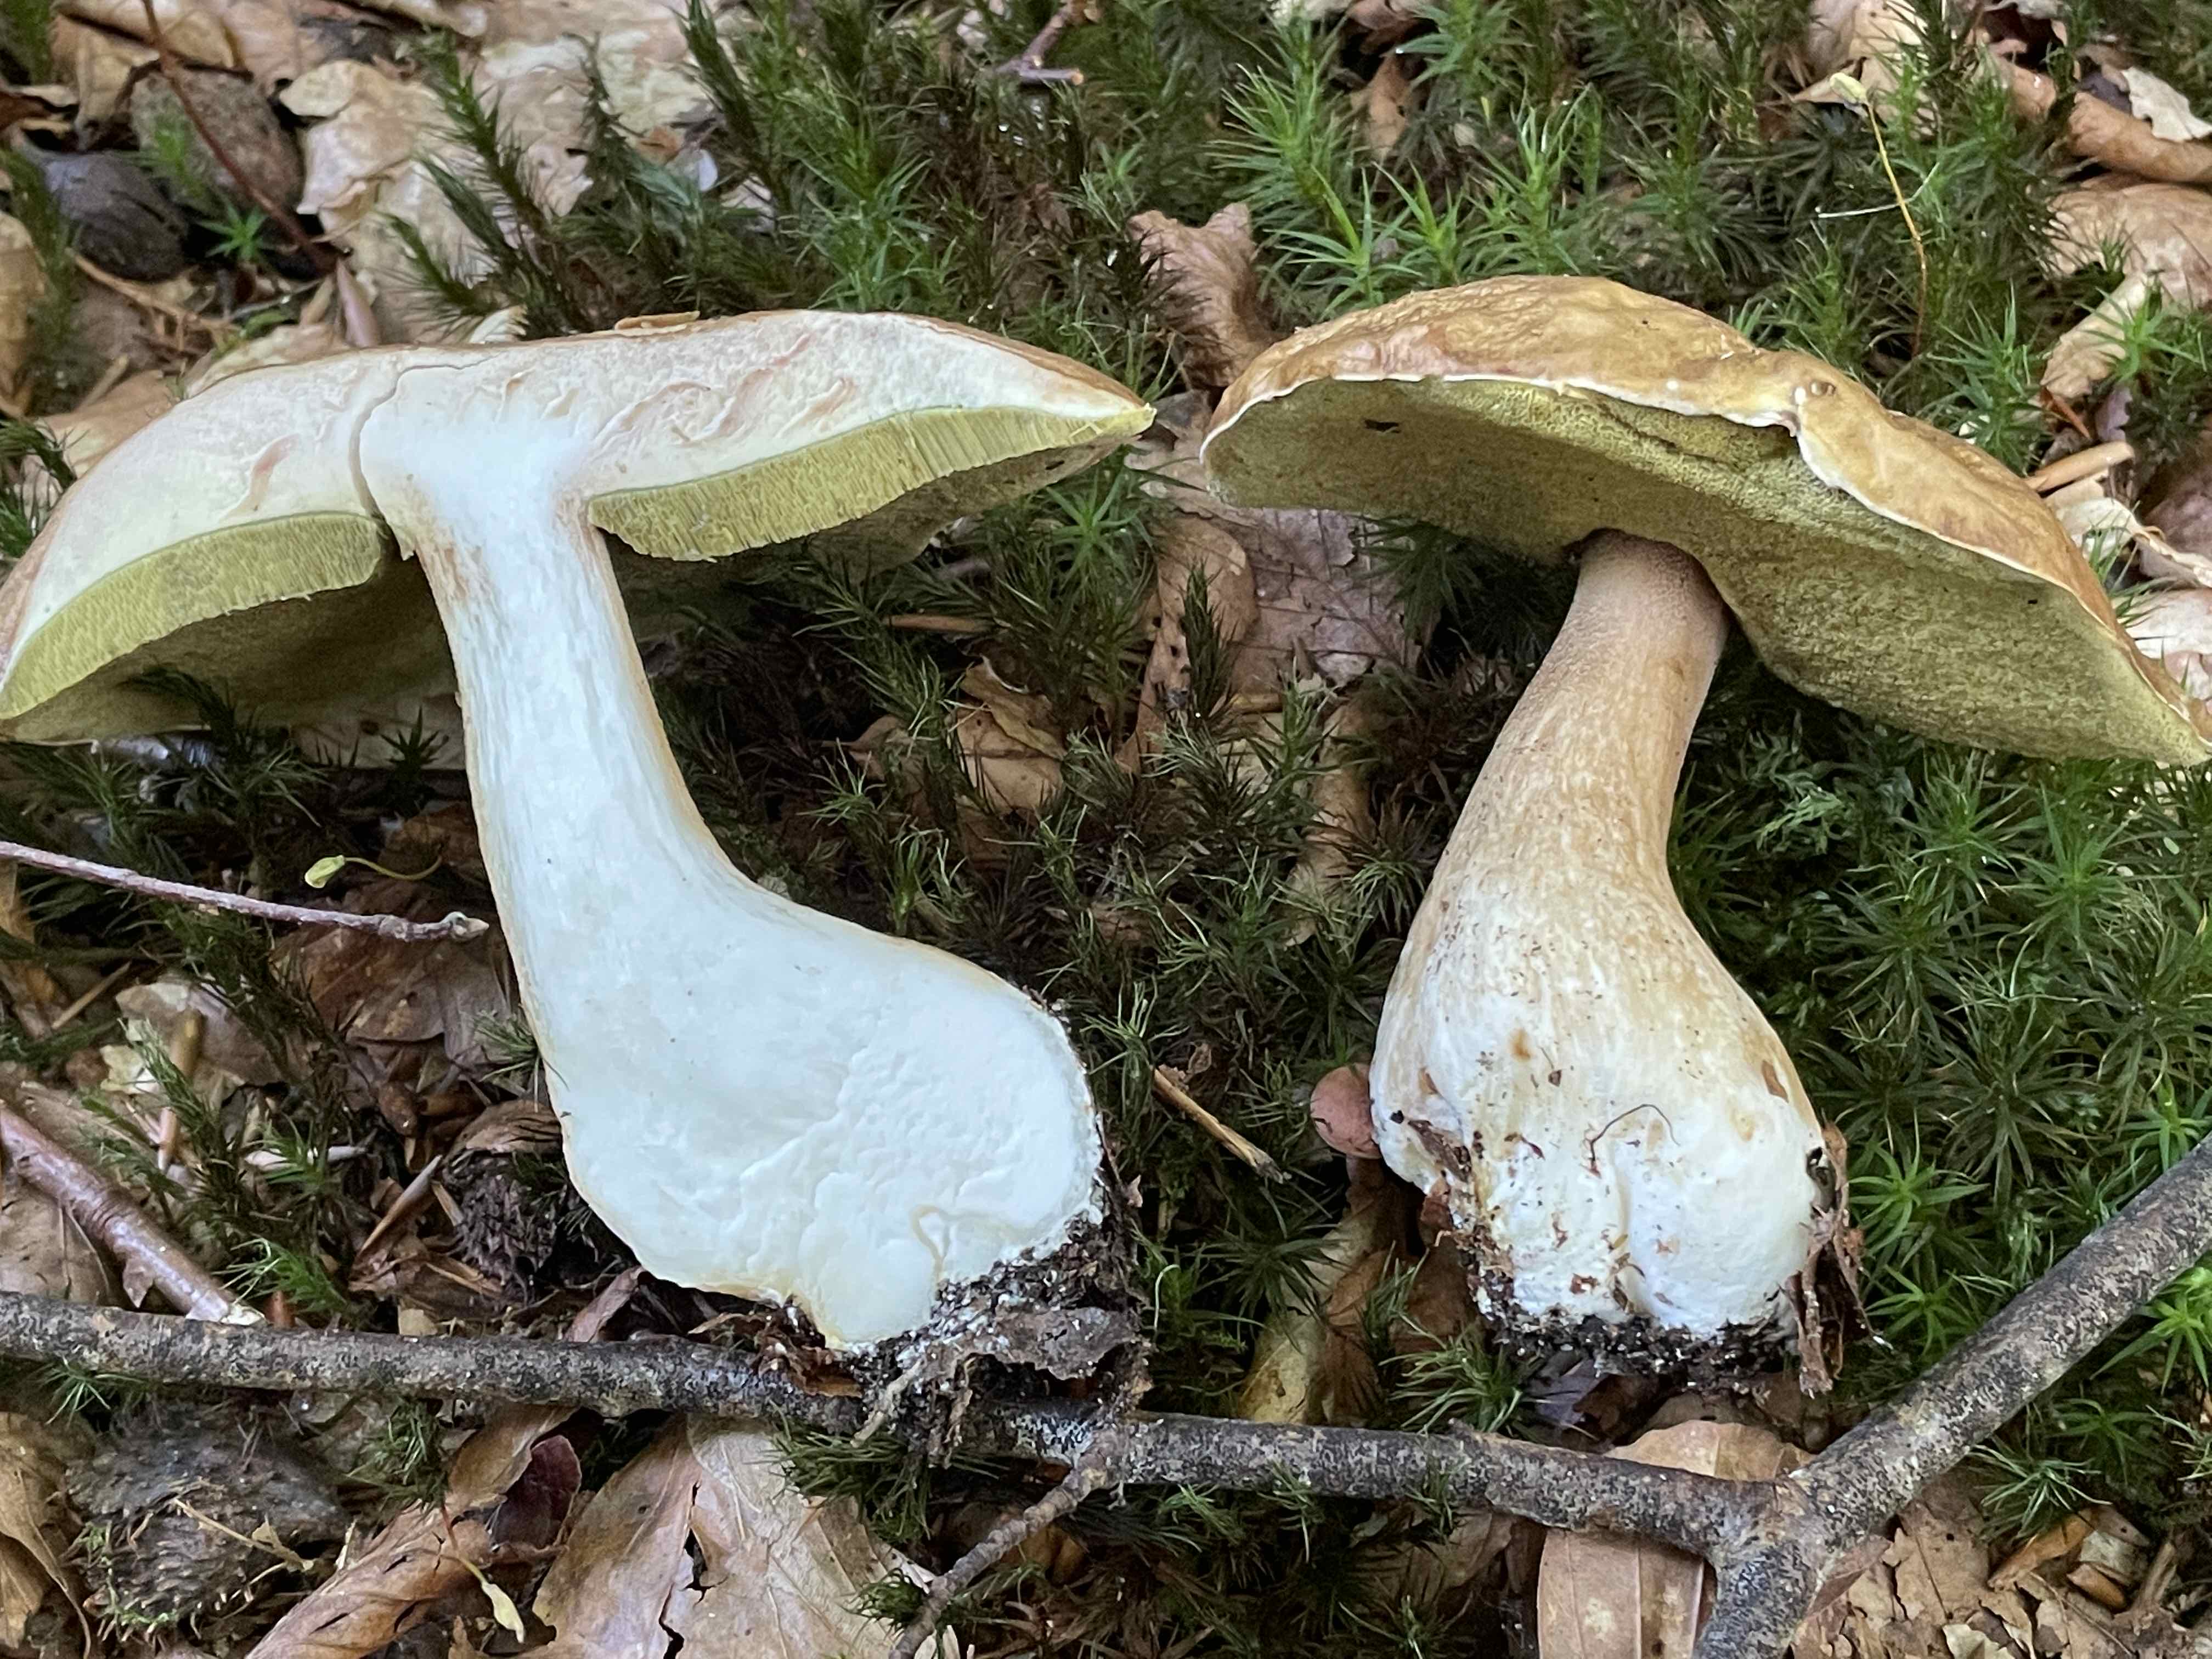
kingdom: Fungi
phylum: Basidiomycota
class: Agaricomycetes
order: Boletales
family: Boletaceae
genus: Boletus
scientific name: Boletus edulis
